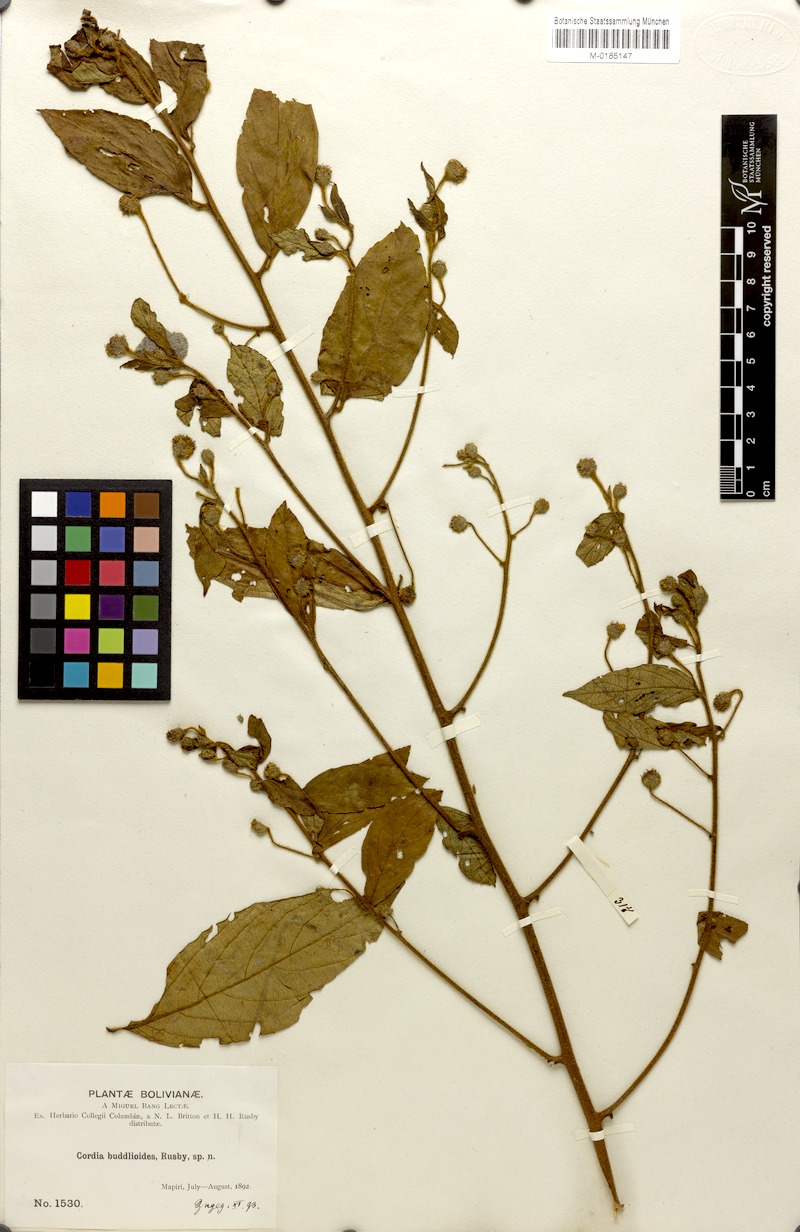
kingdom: Plantae
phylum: Tracheophyta
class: Magnoliopsida
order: Boraginales
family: Cordiaceae
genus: Varronia
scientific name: Varronia buddleoides
